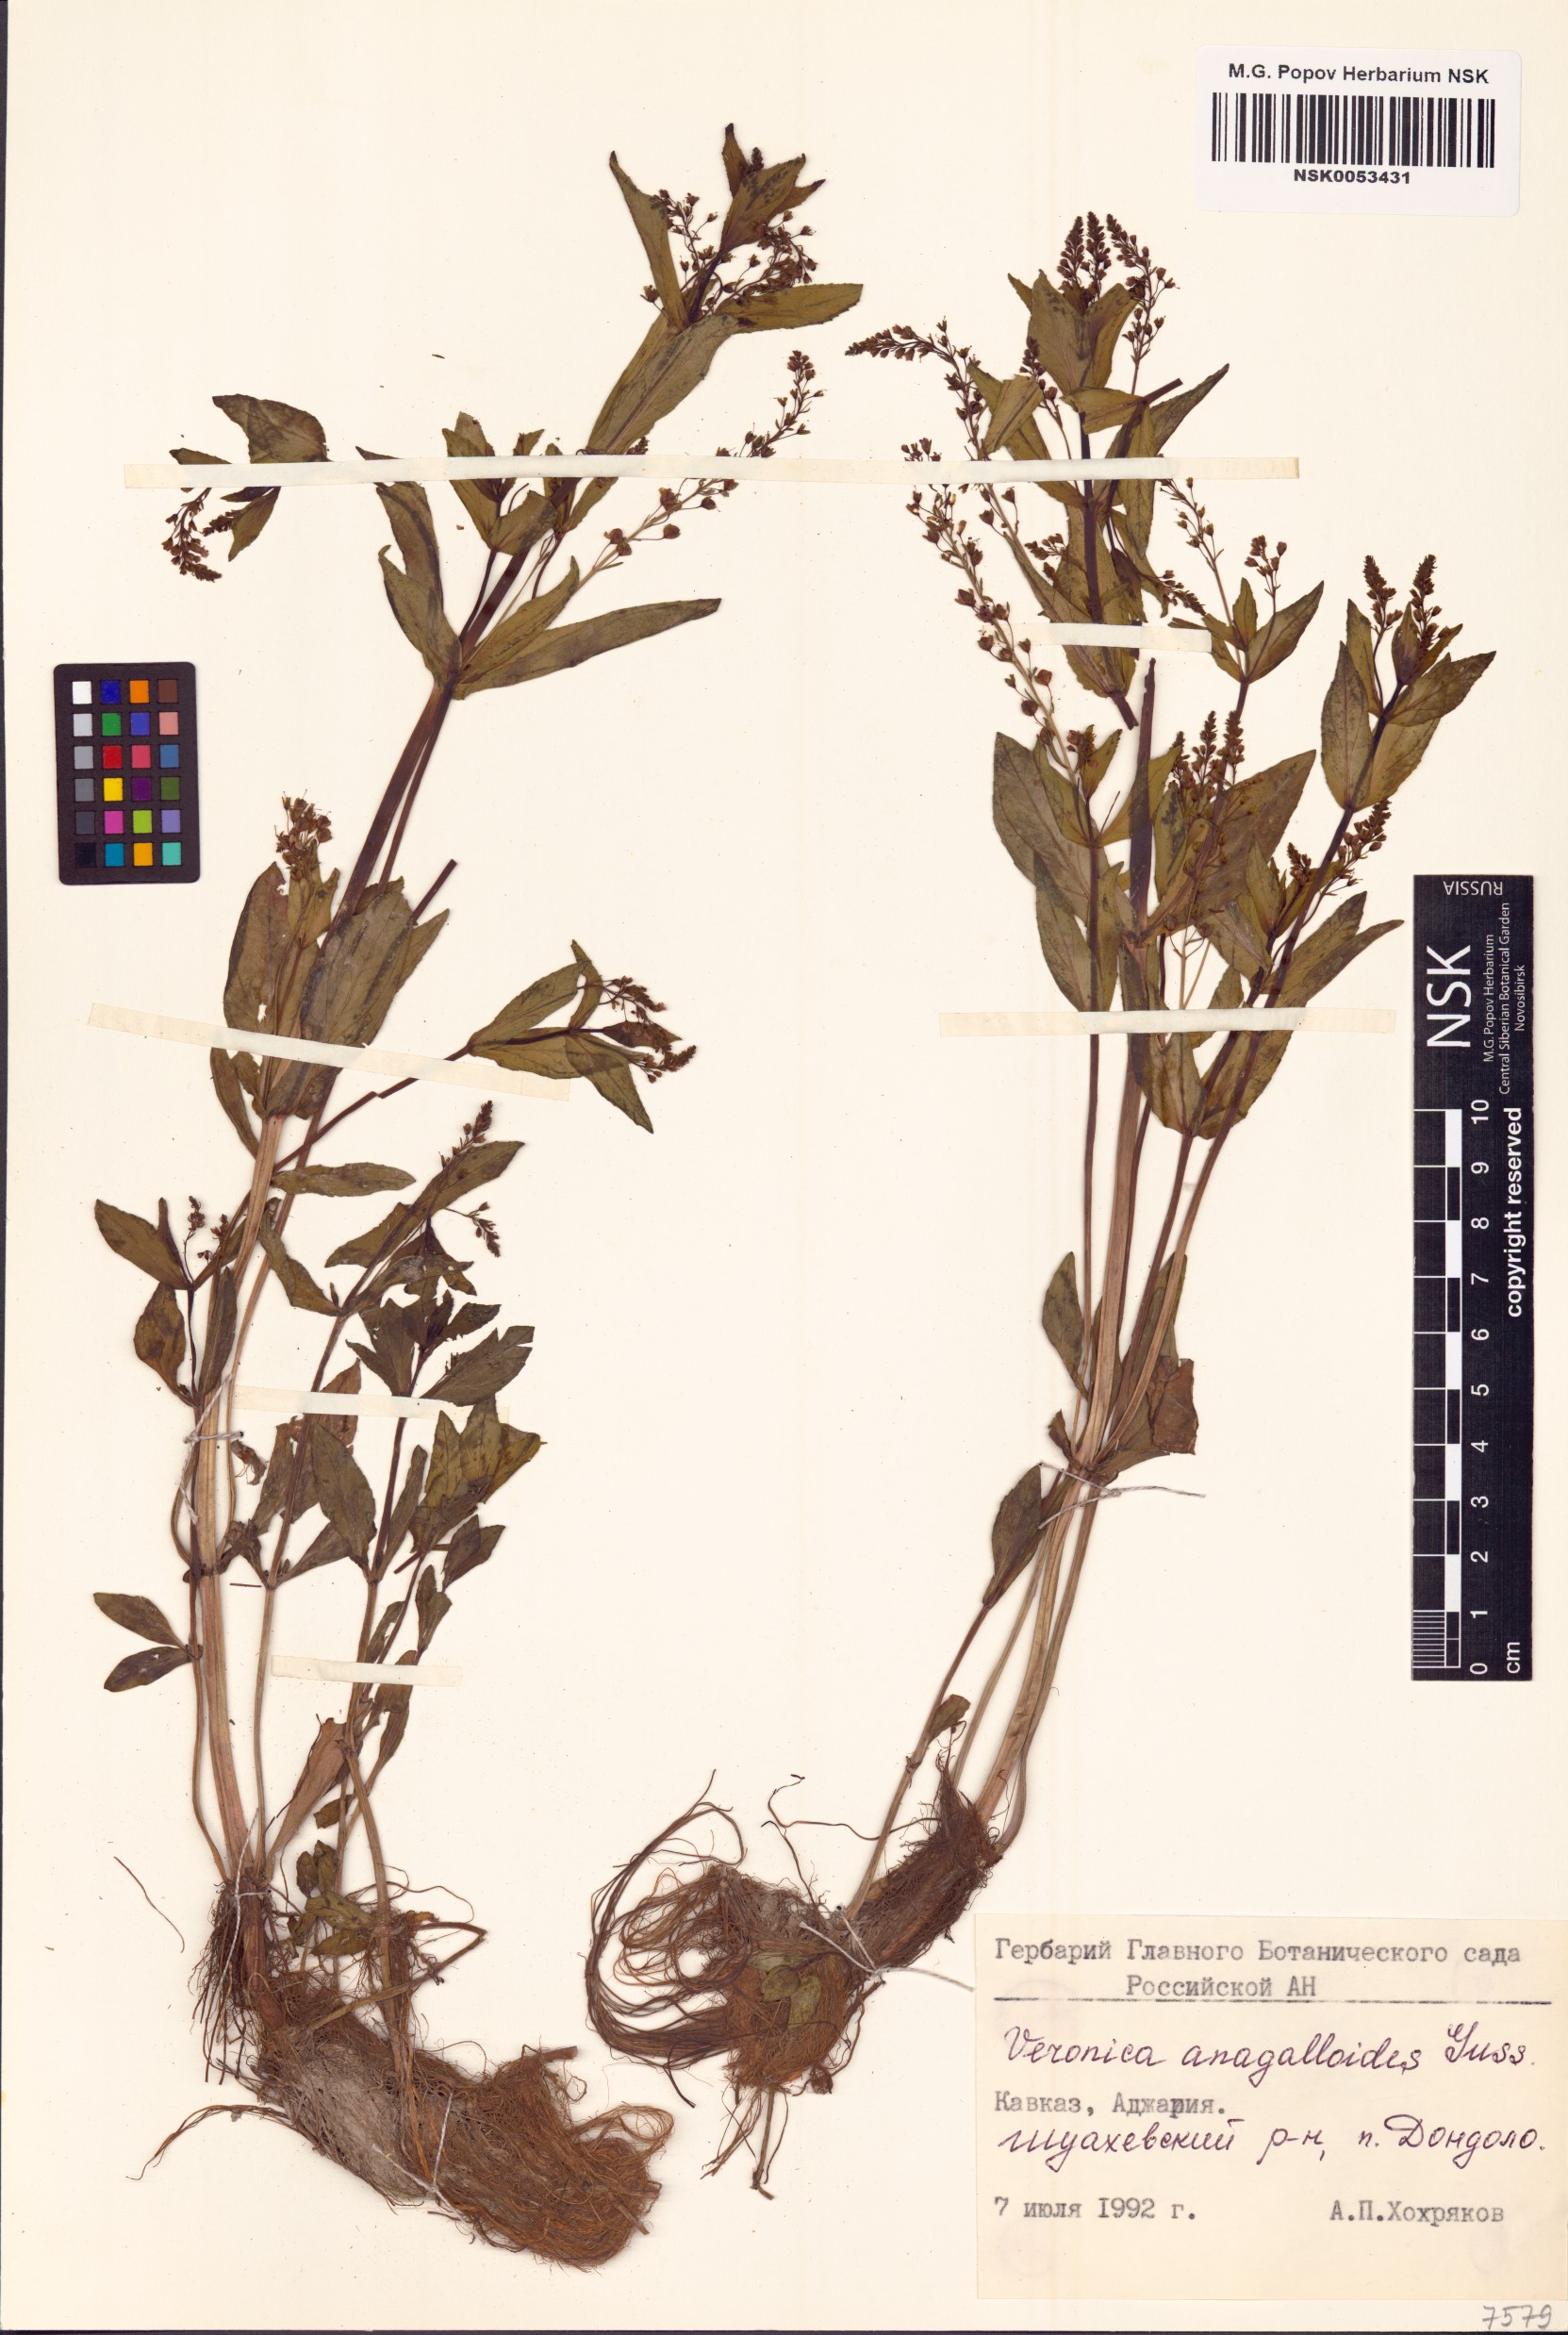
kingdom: Plantae
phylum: Tracheophyta
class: Magnoliopsida
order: Lamiales
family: Plantaginaceae
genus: Veronica
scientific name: Veronica anagalloides
